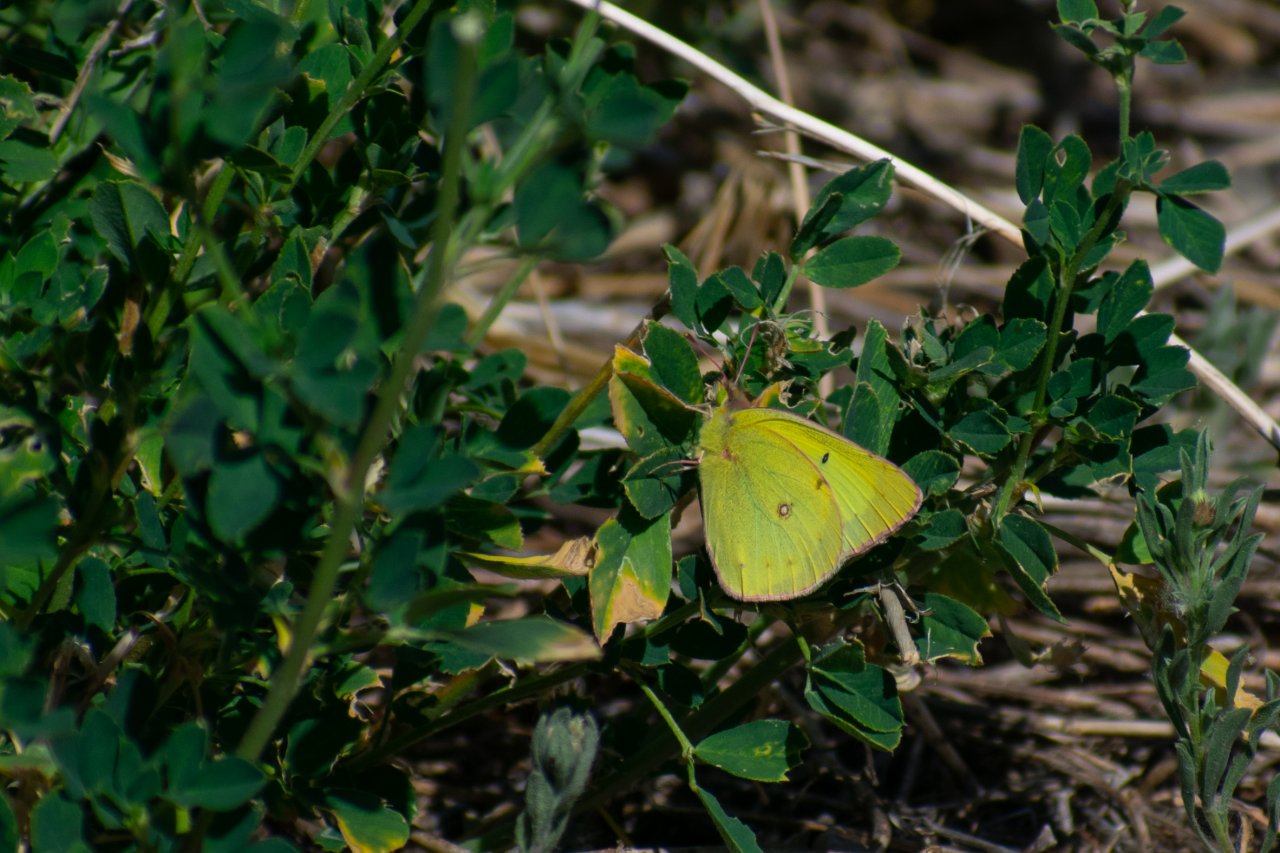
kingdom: Animalia
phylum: Arthropoda
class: Insecta
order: Lepidoptera
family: Pieridae
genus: Colias
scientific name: Colias philodice
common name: Clouded Sulphur
